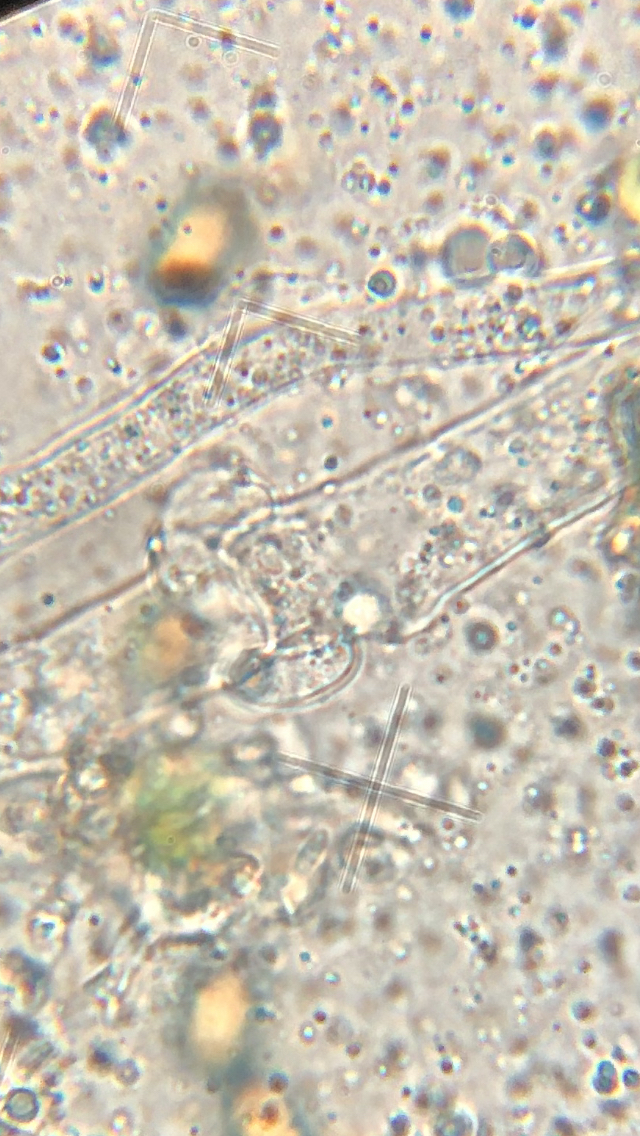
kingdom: Fungi
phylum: Basidiomycota
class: Agaricomycetes
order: Boletales
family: Coniophoraceae
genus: Coniophora
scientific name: Coniophora puteana
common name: gul tømmersvamp
